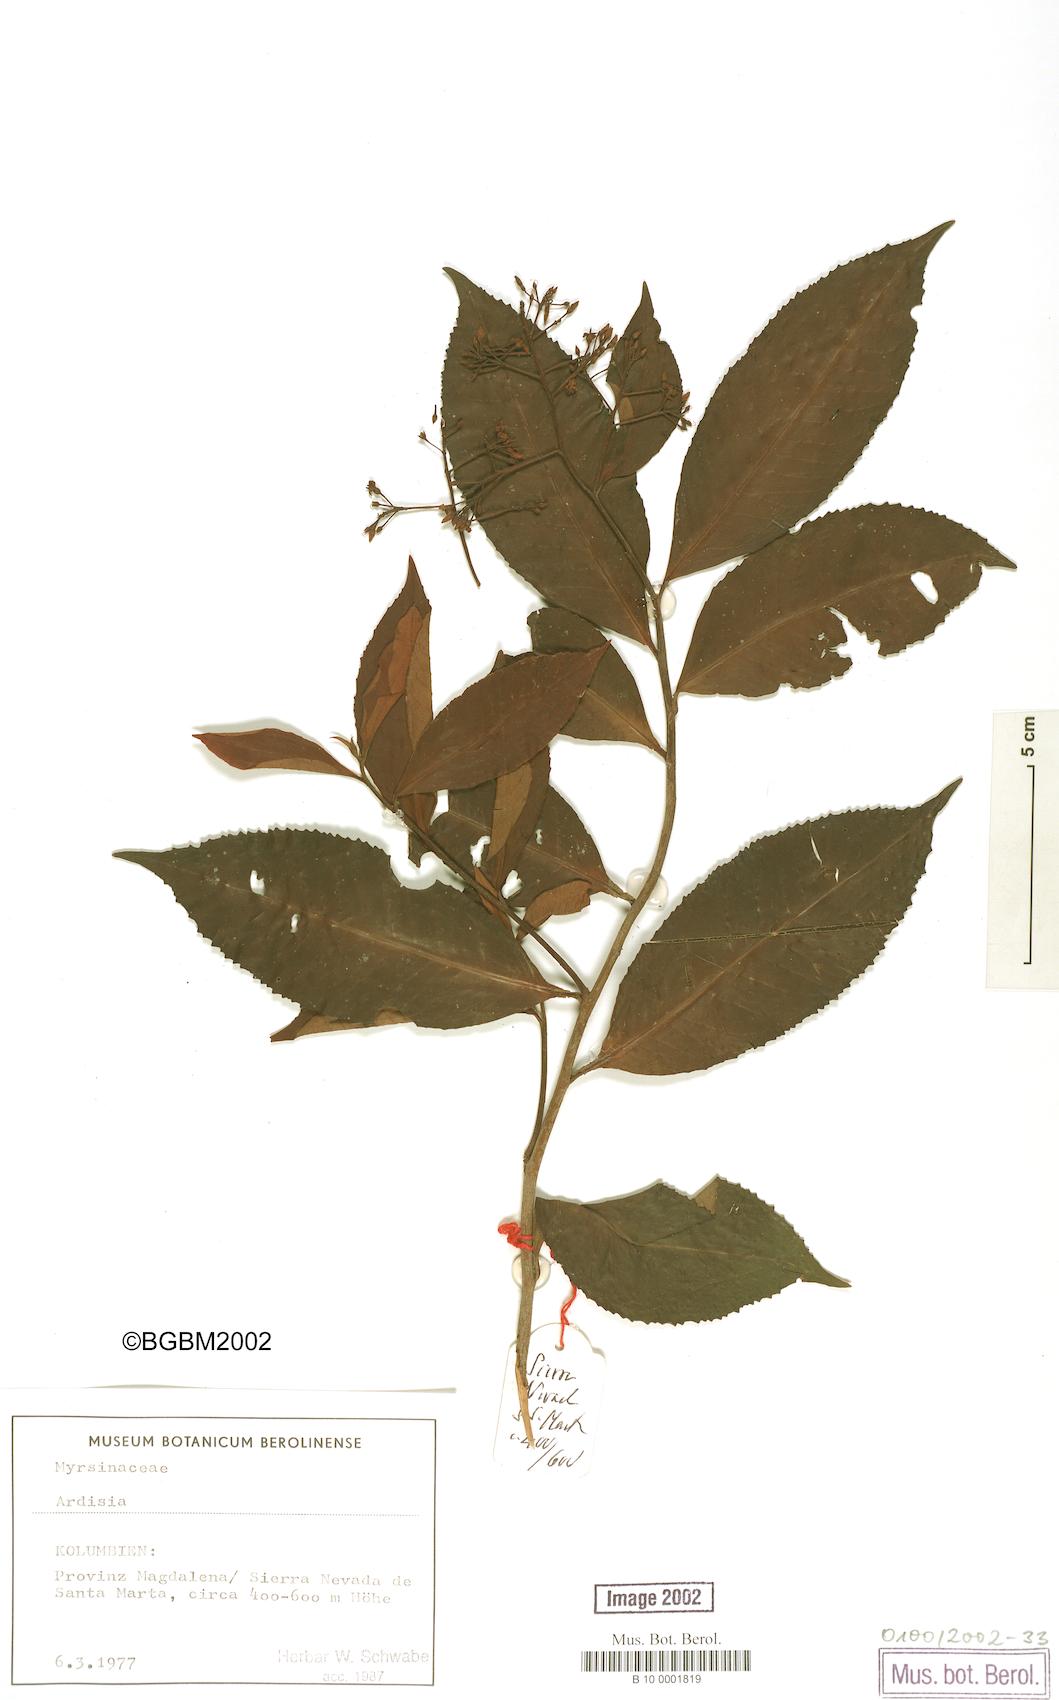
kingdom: Plantae
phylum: Tracheophyta
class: Magnoliopsida
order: Ericales
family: Primulaceae
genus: Ardisia
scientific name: Ardisia
